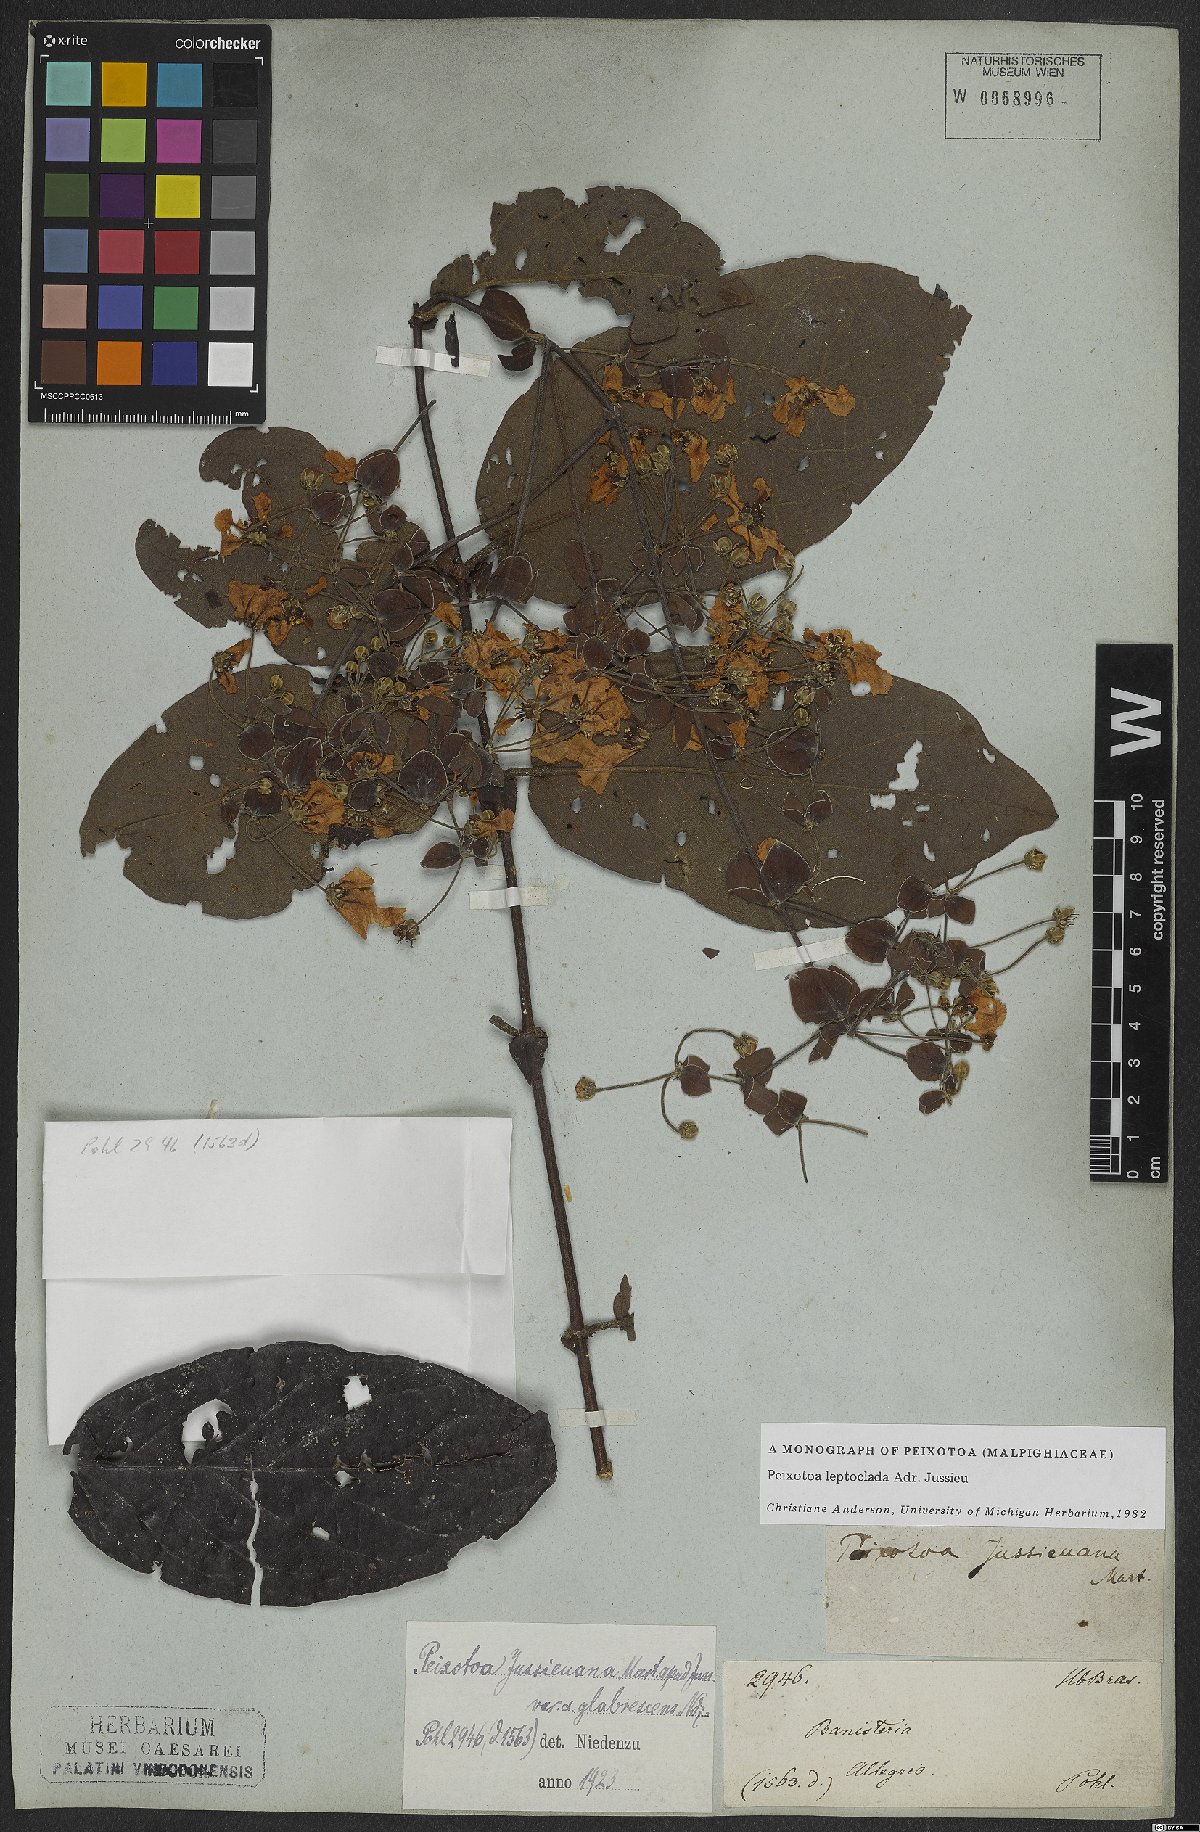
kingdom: Plantae
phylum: Tracheophyta
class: Magnoliopsida
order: Malpighiales
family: Malpighiaceae
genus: Peixotoa
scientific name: Peixotoa leptoclada
